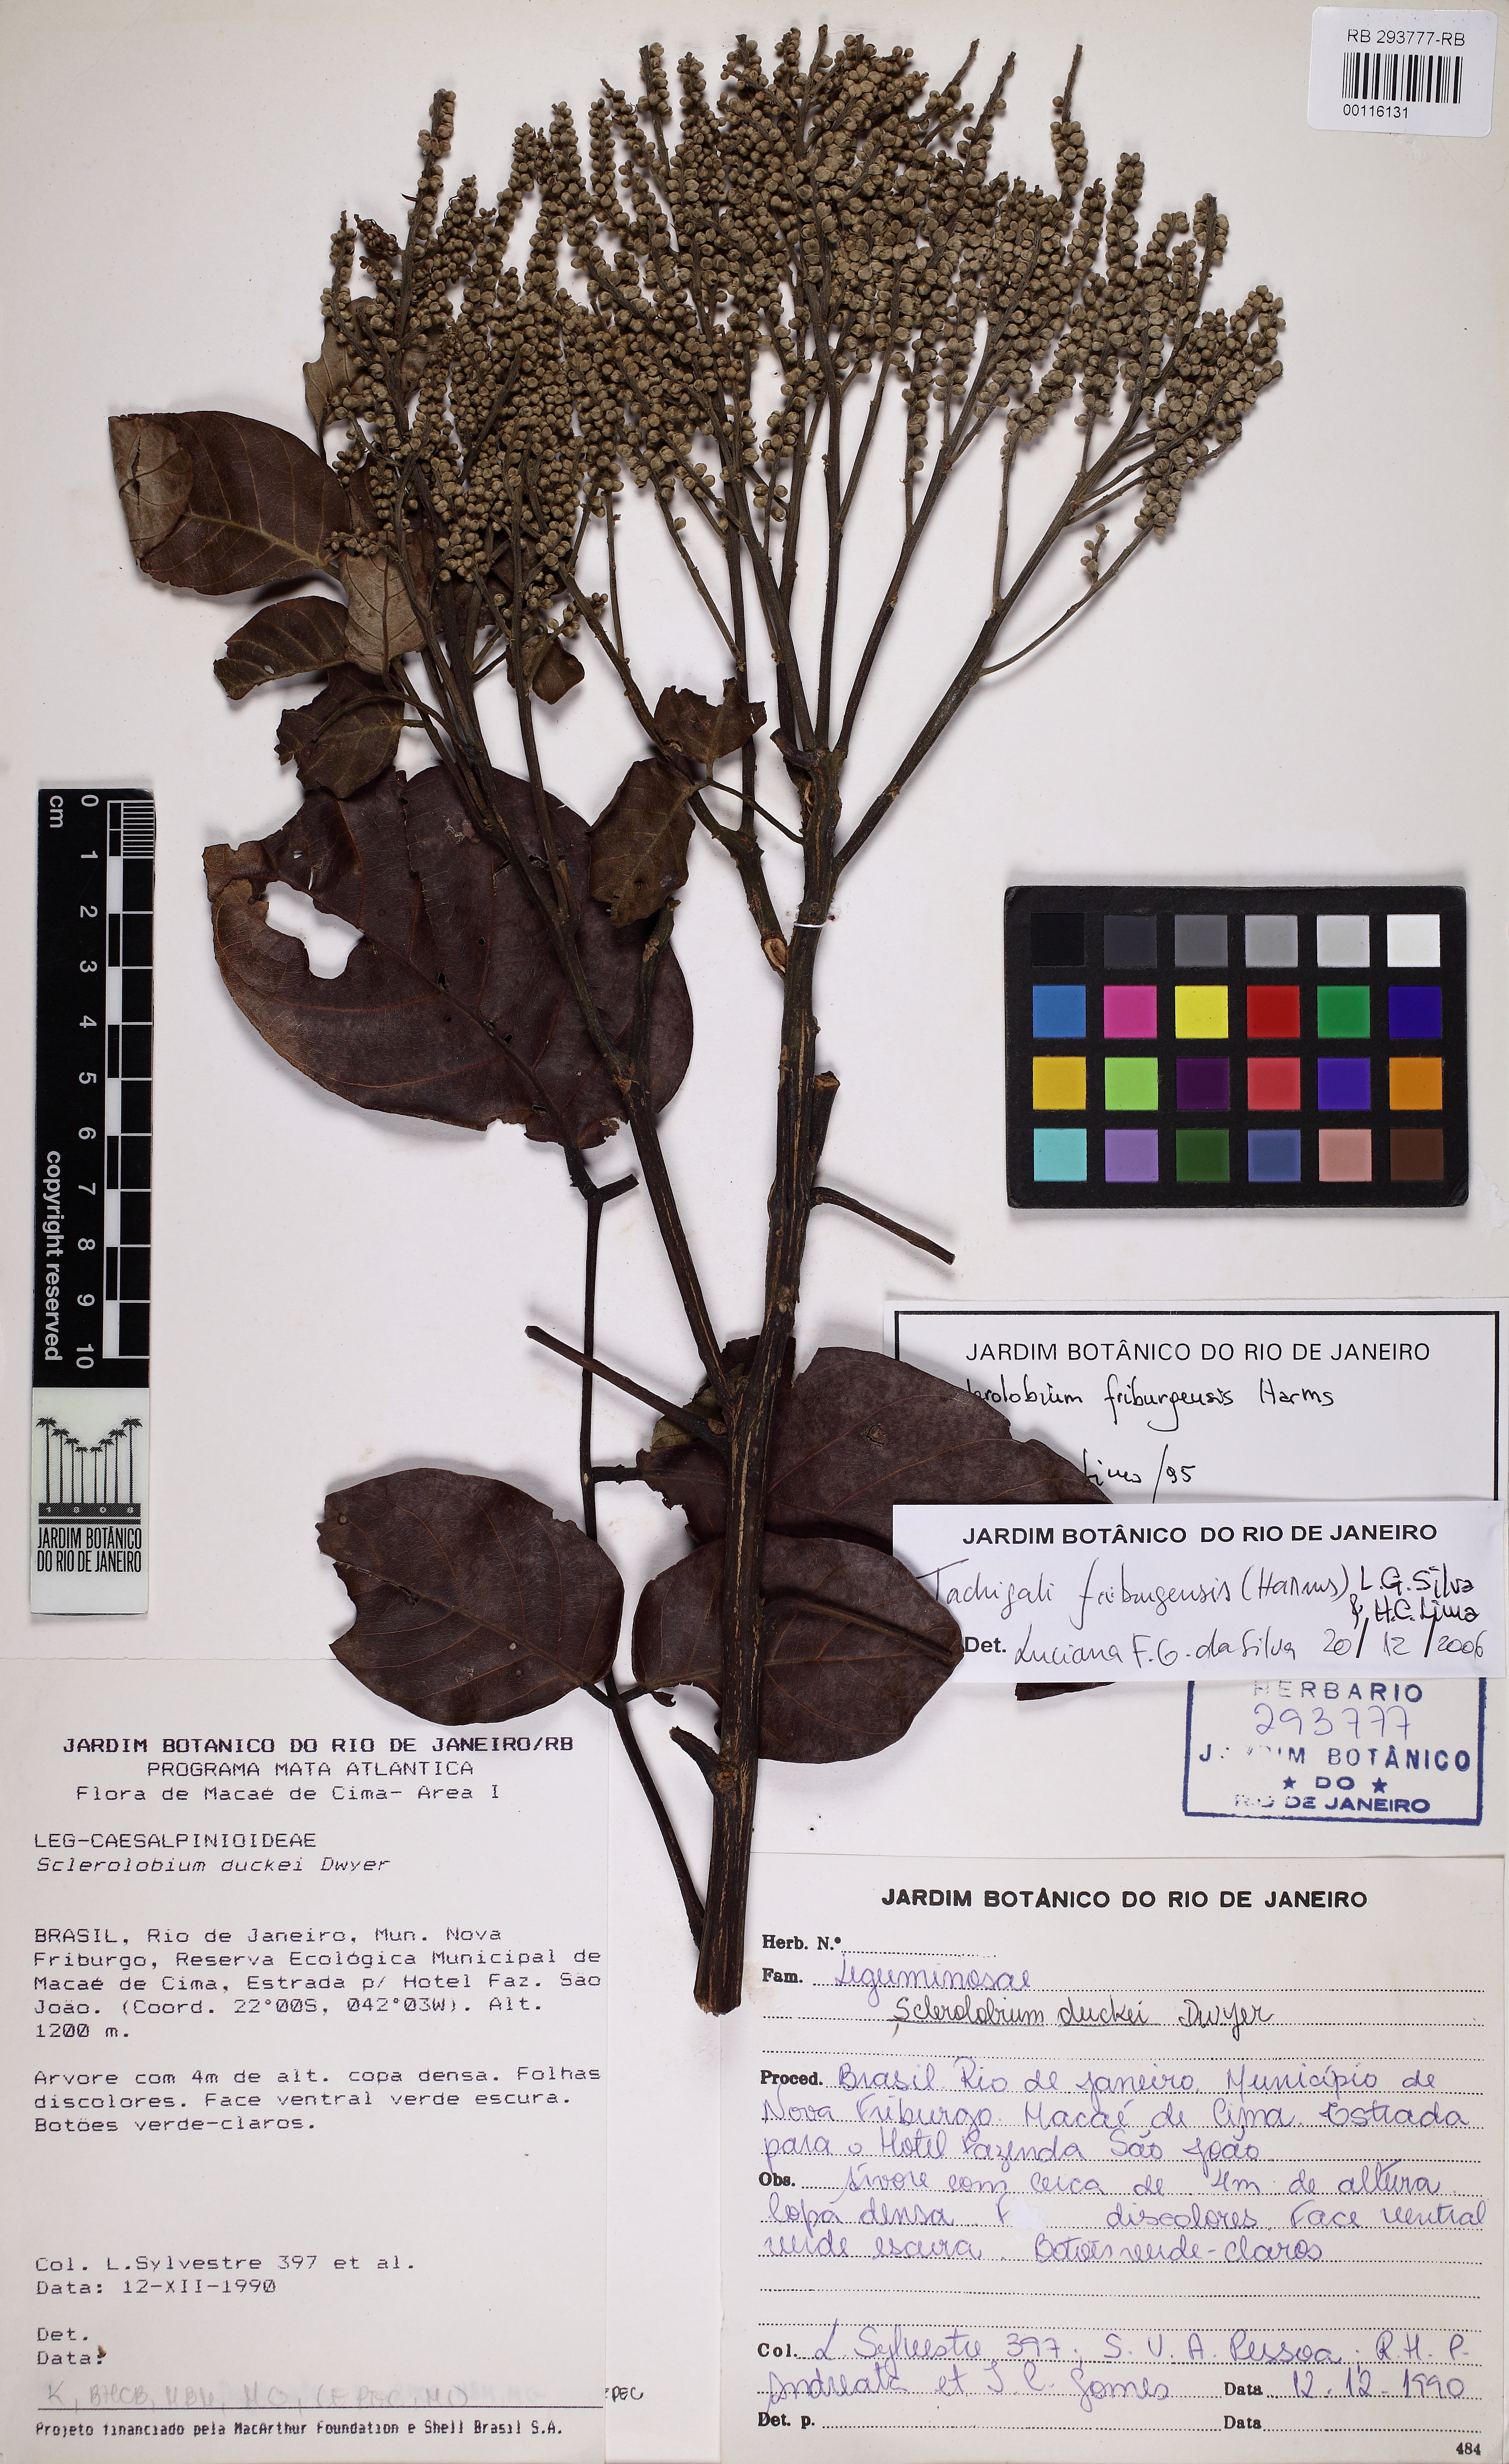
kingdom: Plantae
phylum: Tracheophyta
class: Magnoliopsida
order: Fabales
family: Fabaceae
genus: Tachigali
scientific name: Tachigali friburgensis
